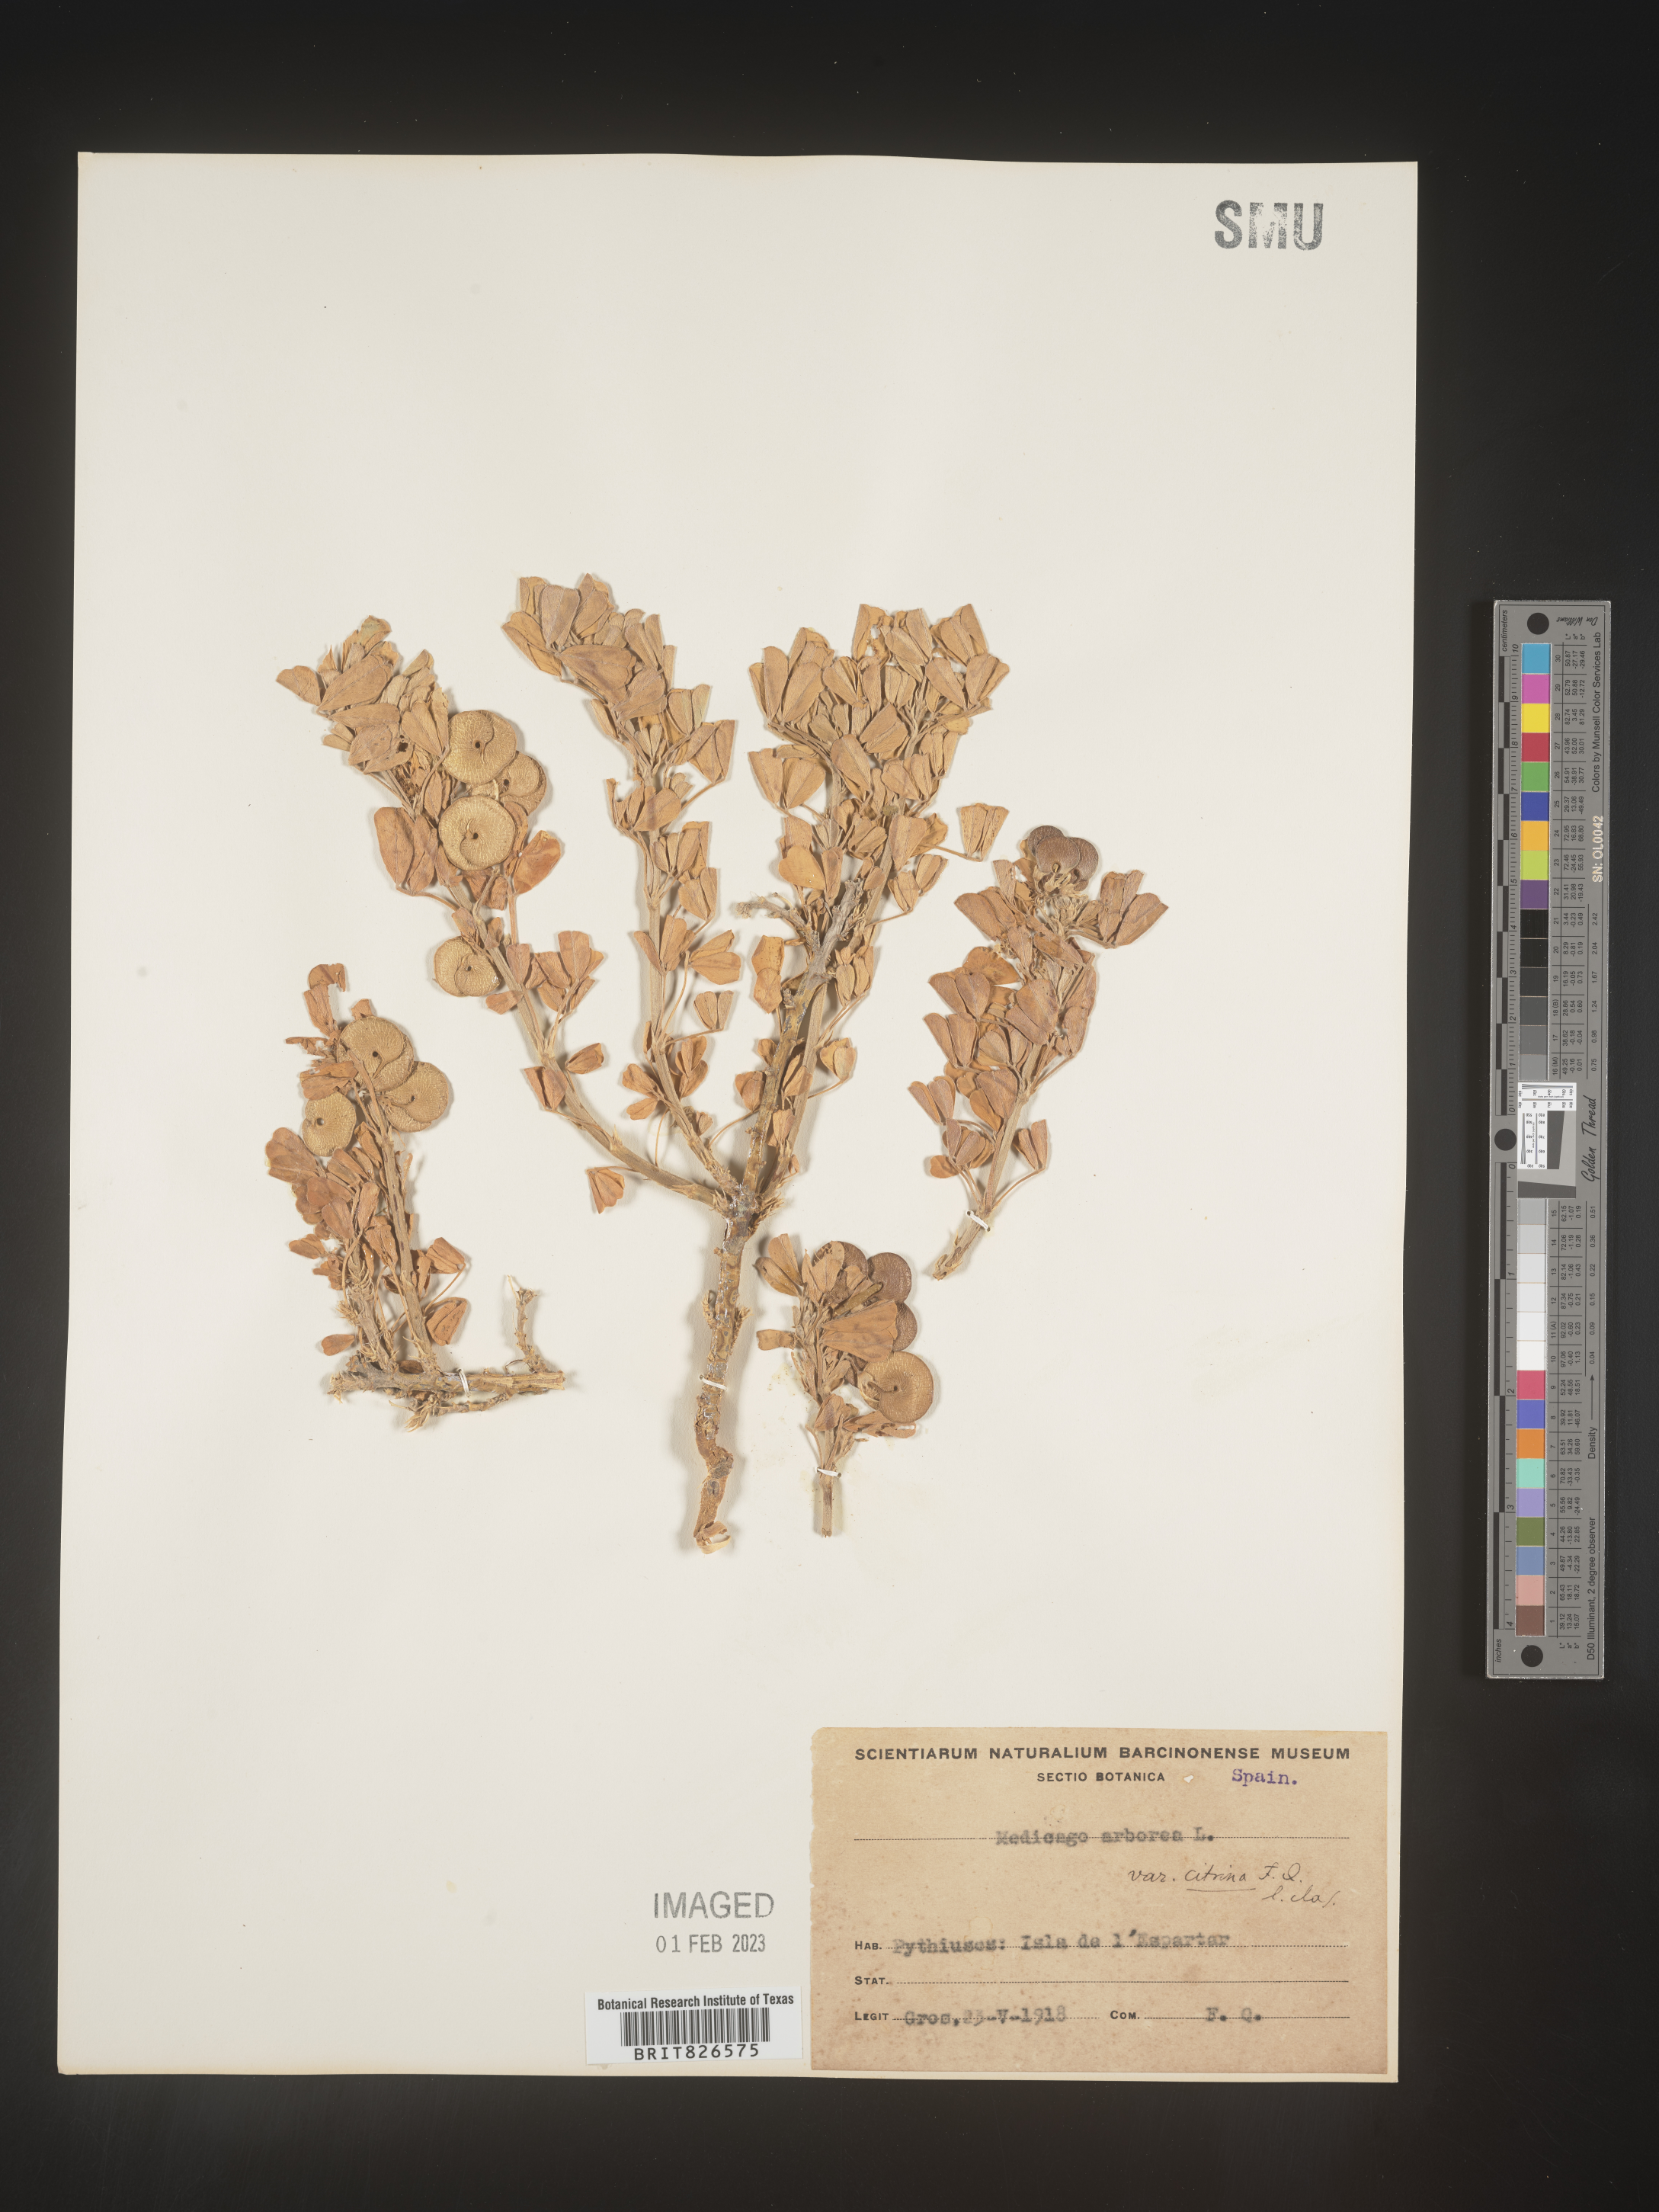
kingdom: Plantae
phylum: Tracheophyta
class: Magnoliopsida
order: Fabales
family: Fabaceae
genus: Medicago
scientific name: Medicago
